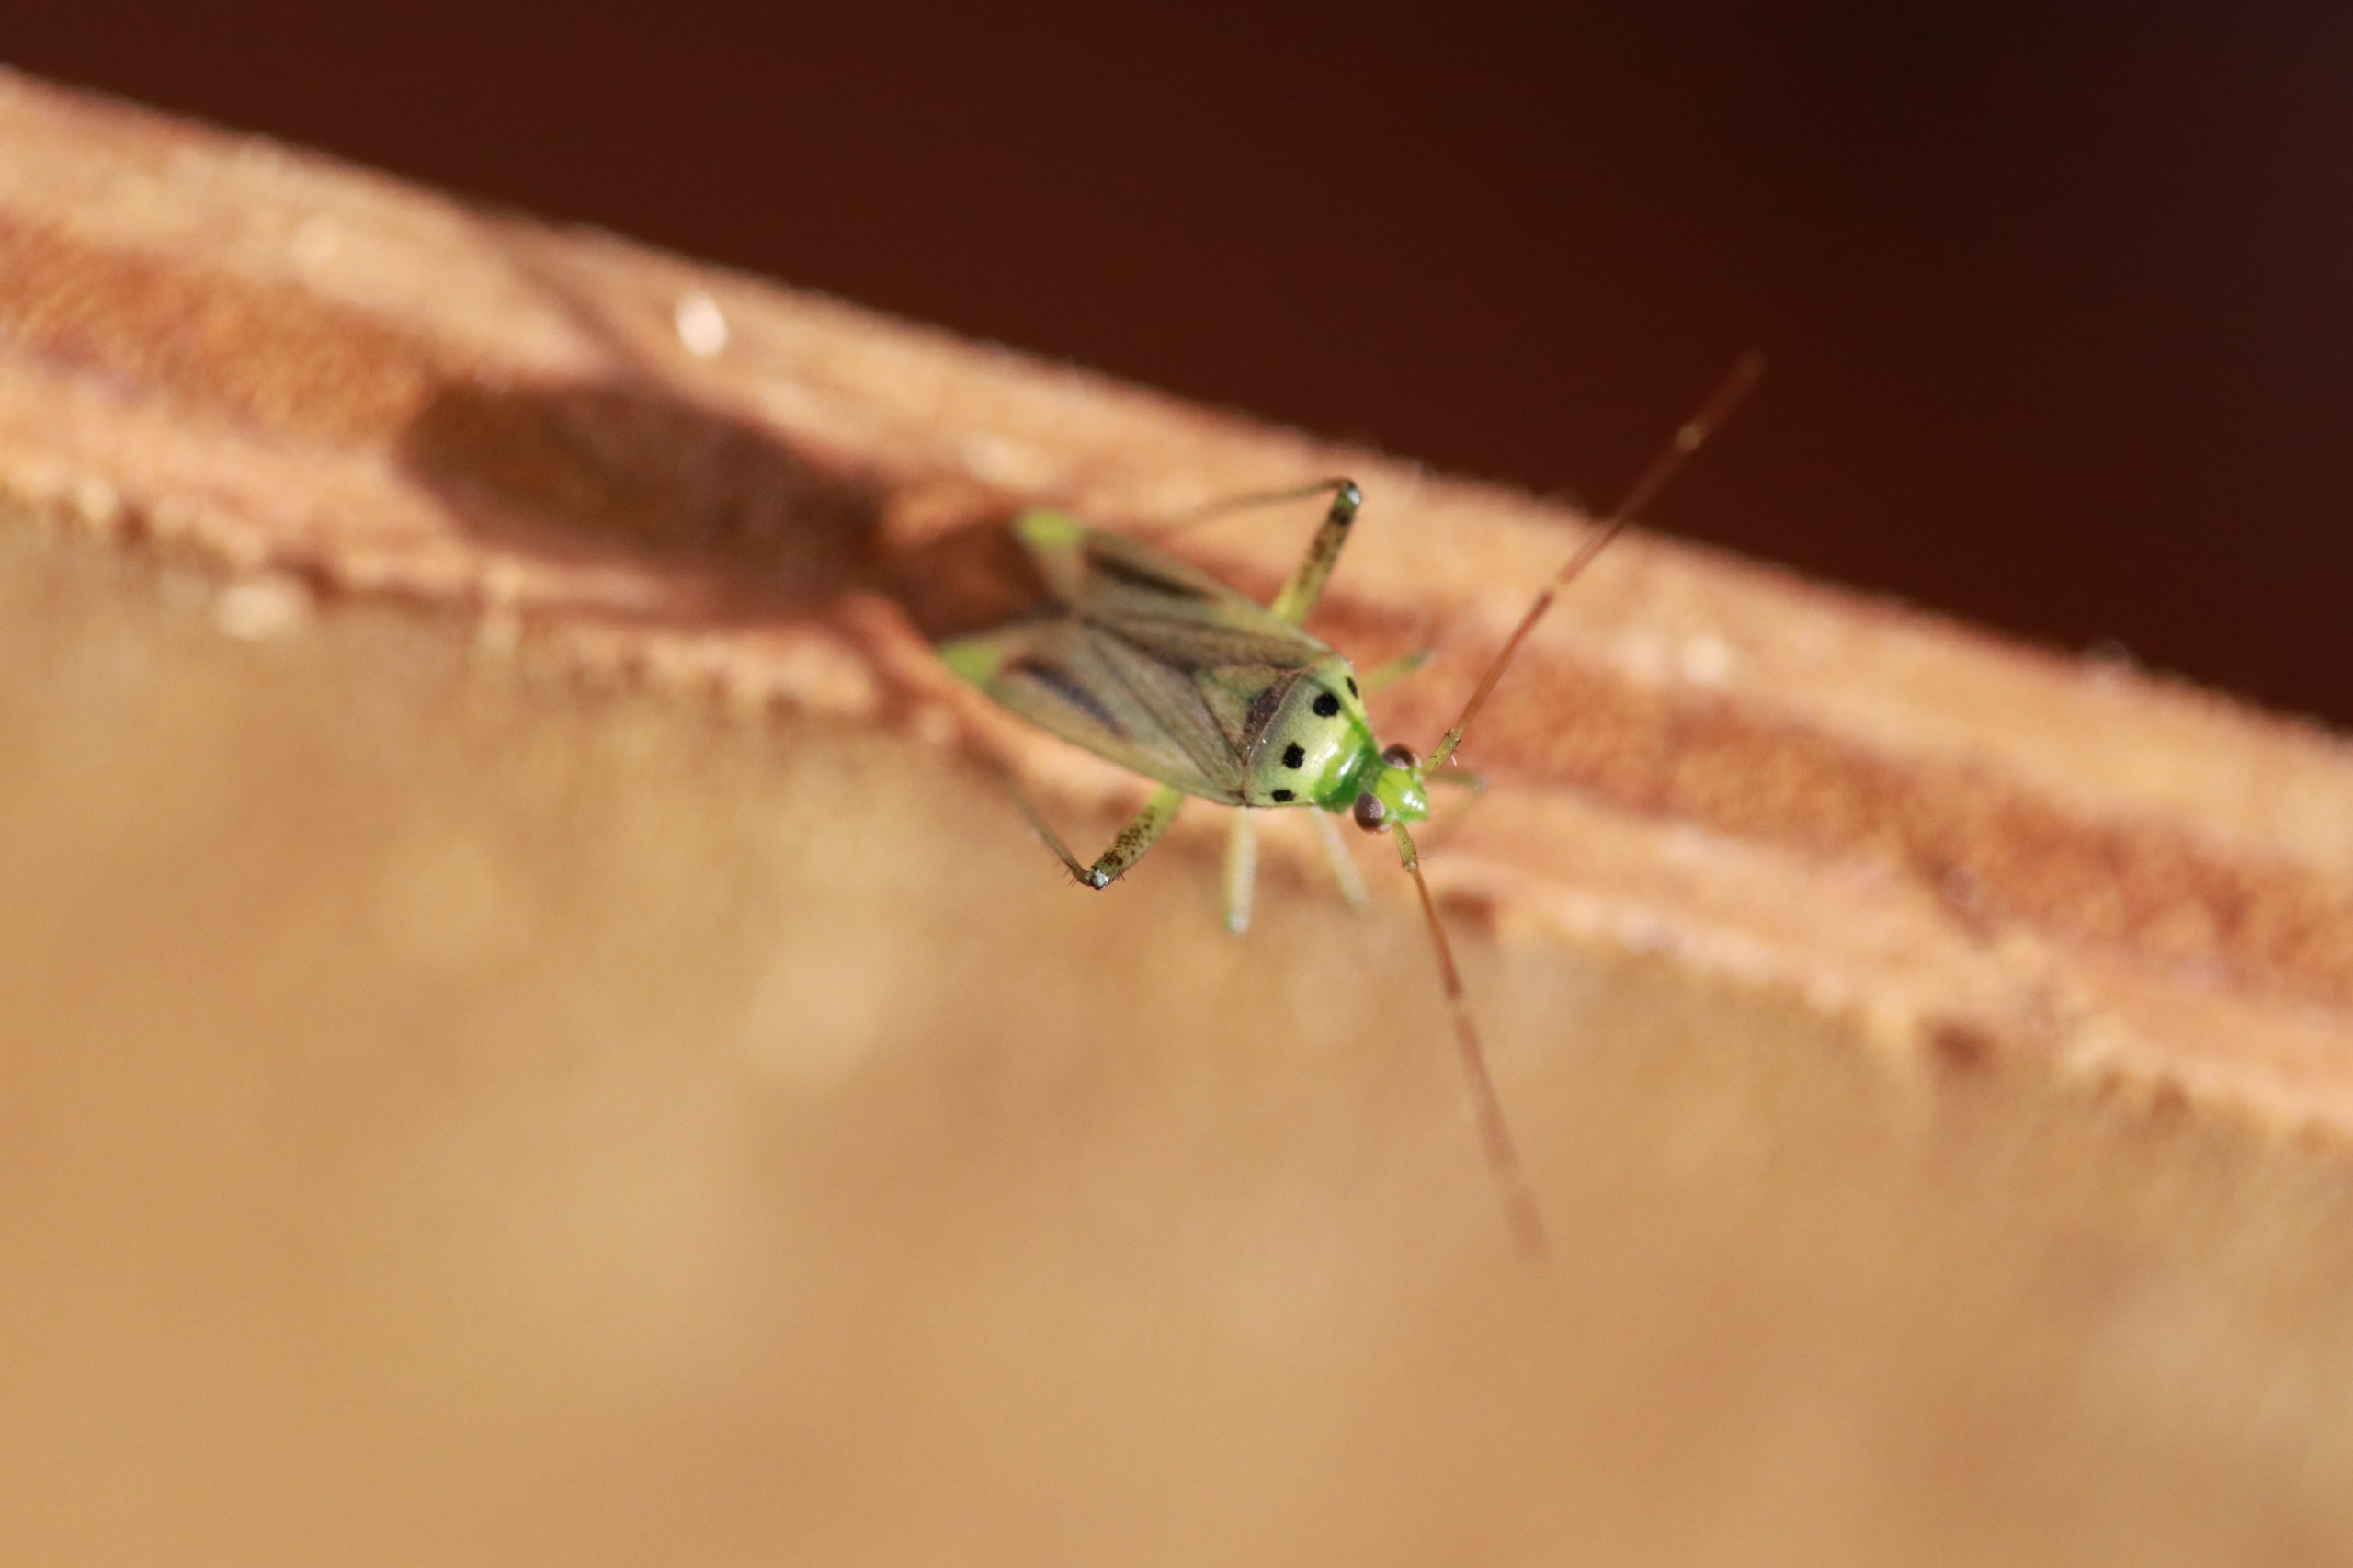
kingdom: Animalia
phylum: Arthropoda
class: Insecta
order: Hemiptera
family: Miridae
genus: Adelphocoris
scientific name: Adelphocoris quadripunctatus
